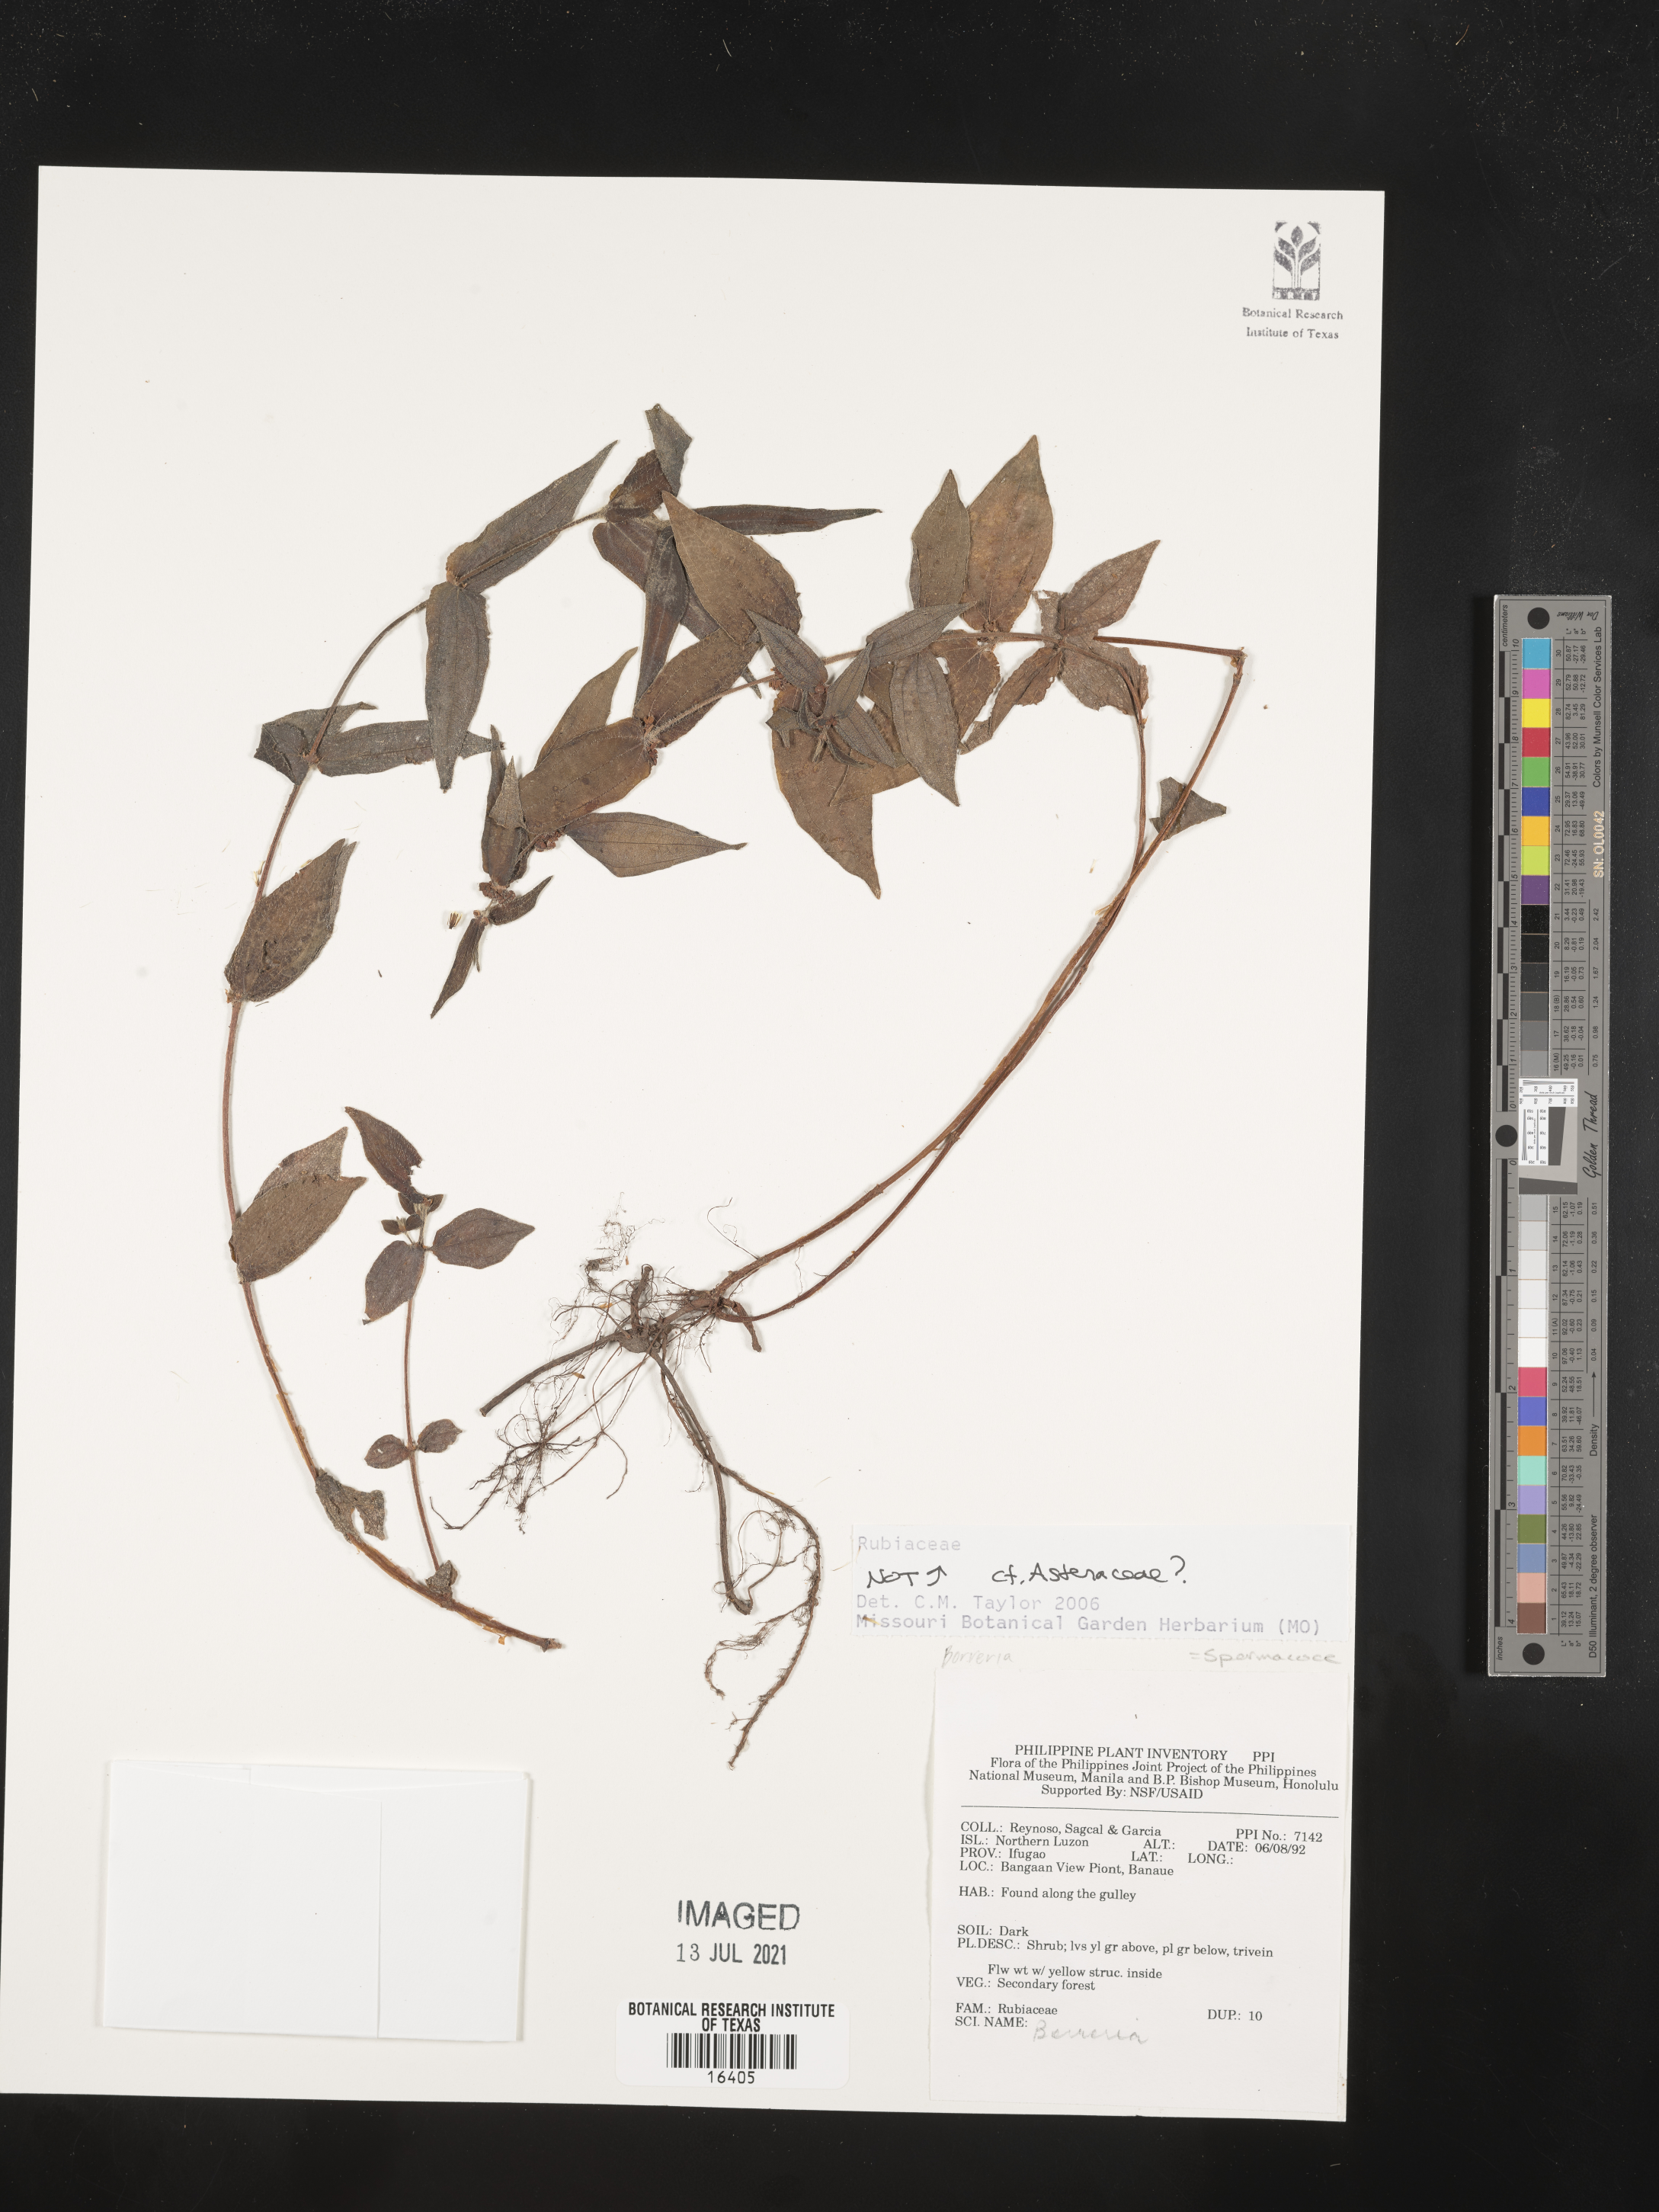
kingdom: Plantae
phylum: Tracheophyta
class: Magnoliopsida
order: Asterales
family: Asteraceae
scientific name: Asteraceae
